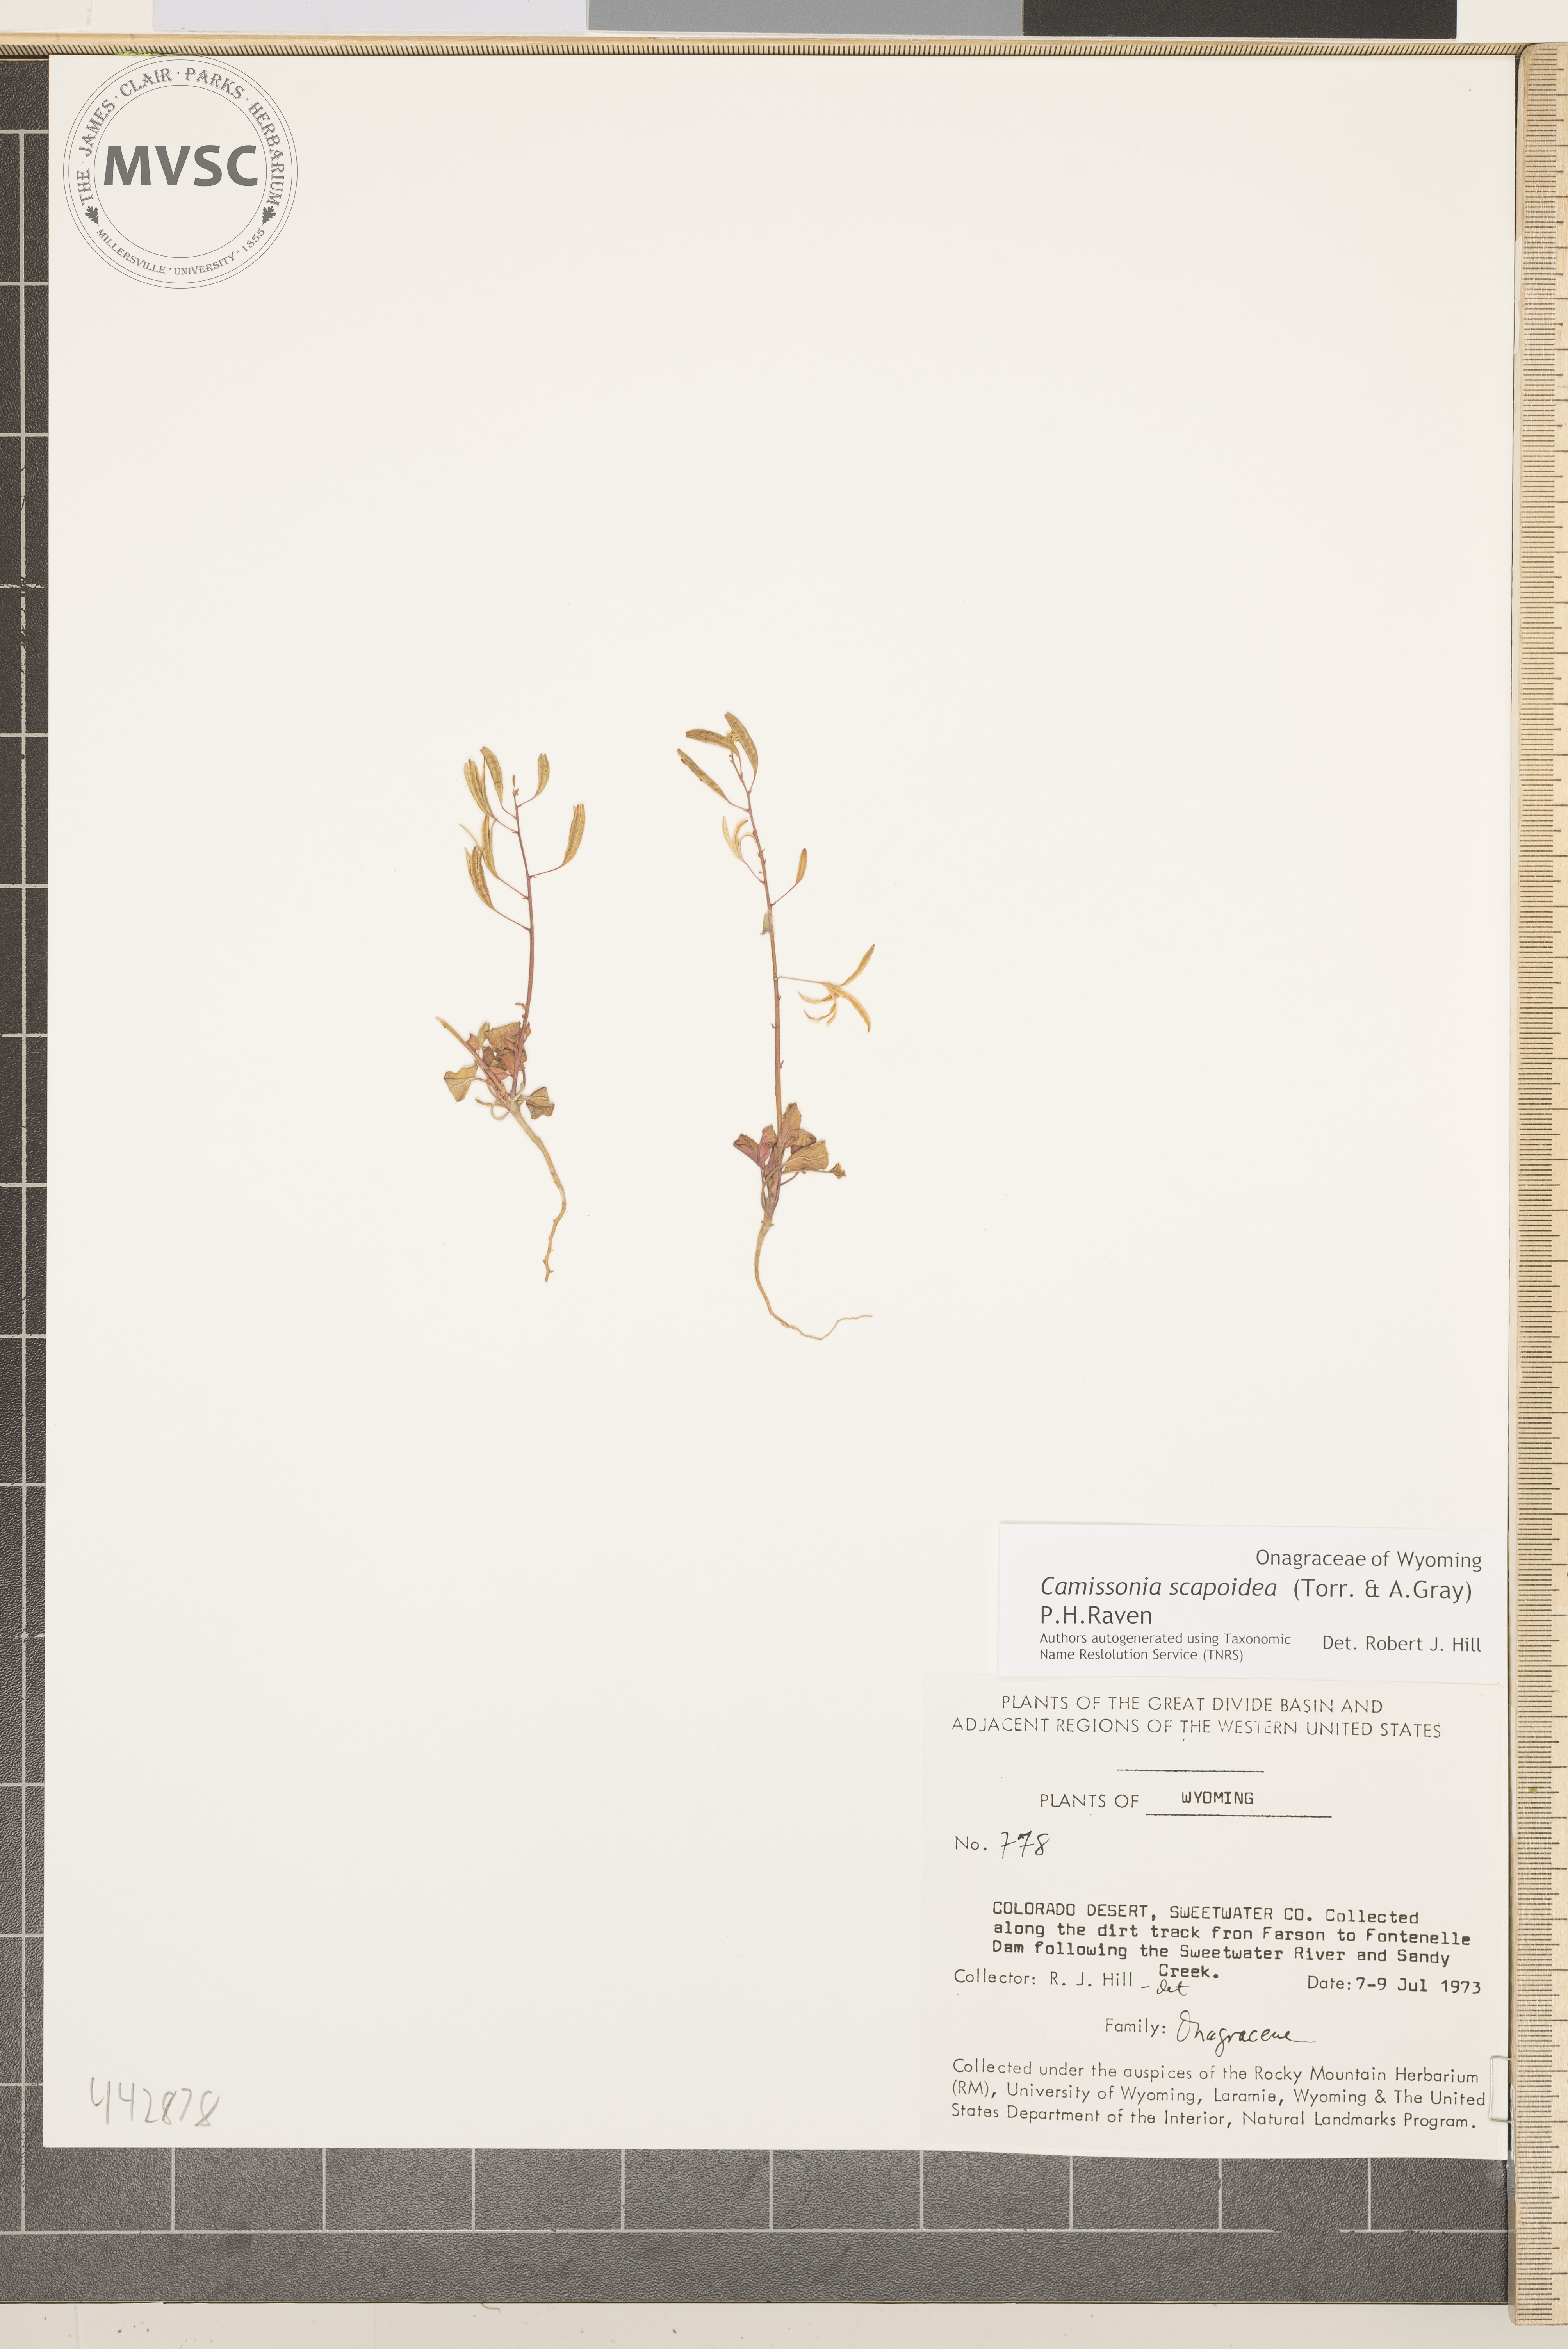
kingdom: Plantae
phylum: Tracheophyta
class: Magnoliopsida
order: Myrtales
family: Onagraceae
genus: Chylismia
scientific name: Chylismia scapoidea
